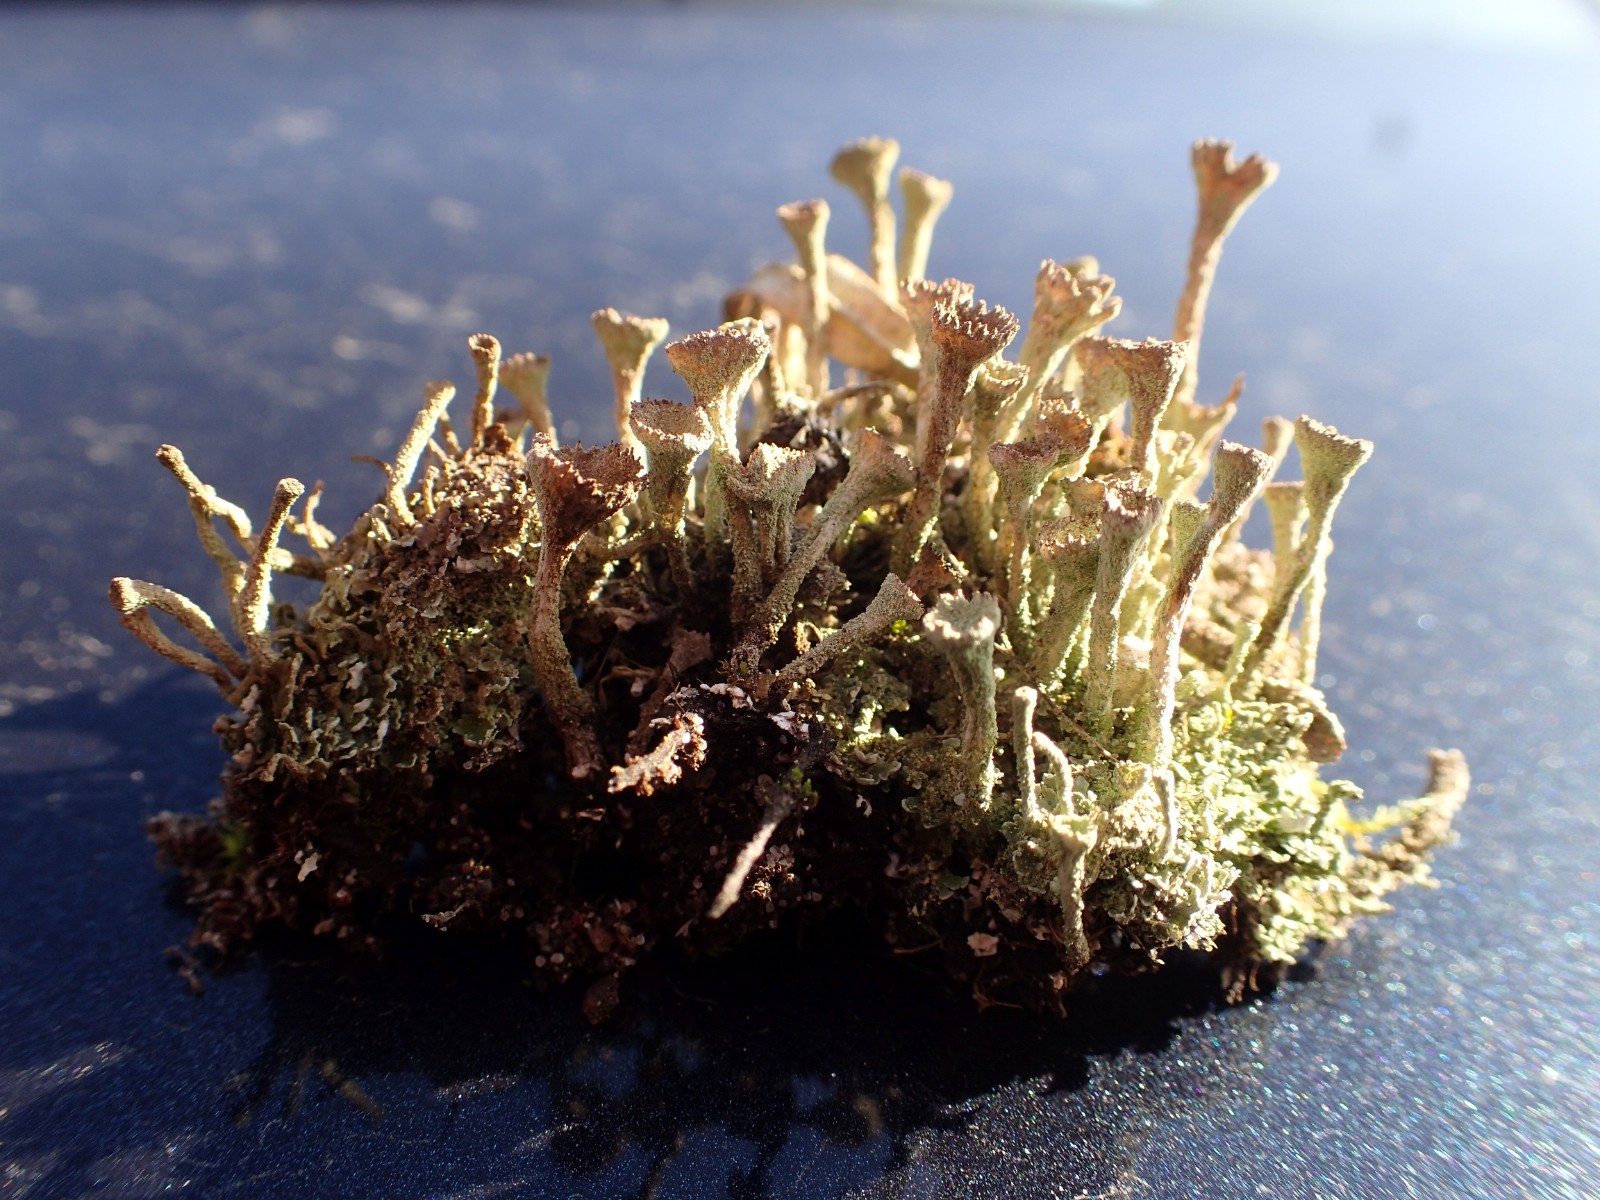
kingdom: Fungi
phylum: Ascomycota
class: Lecanoromycetes
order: Lecanorales
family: Cladoniaceae
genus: Cladonia
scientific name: Cladonia
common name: brungrøn bægerlav
